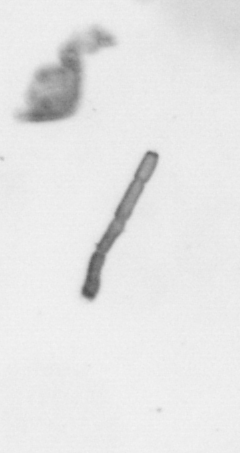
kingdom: Chromista
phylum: Ochrophyta
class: Bacillariophyceae
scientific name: Bacillariophyceae
